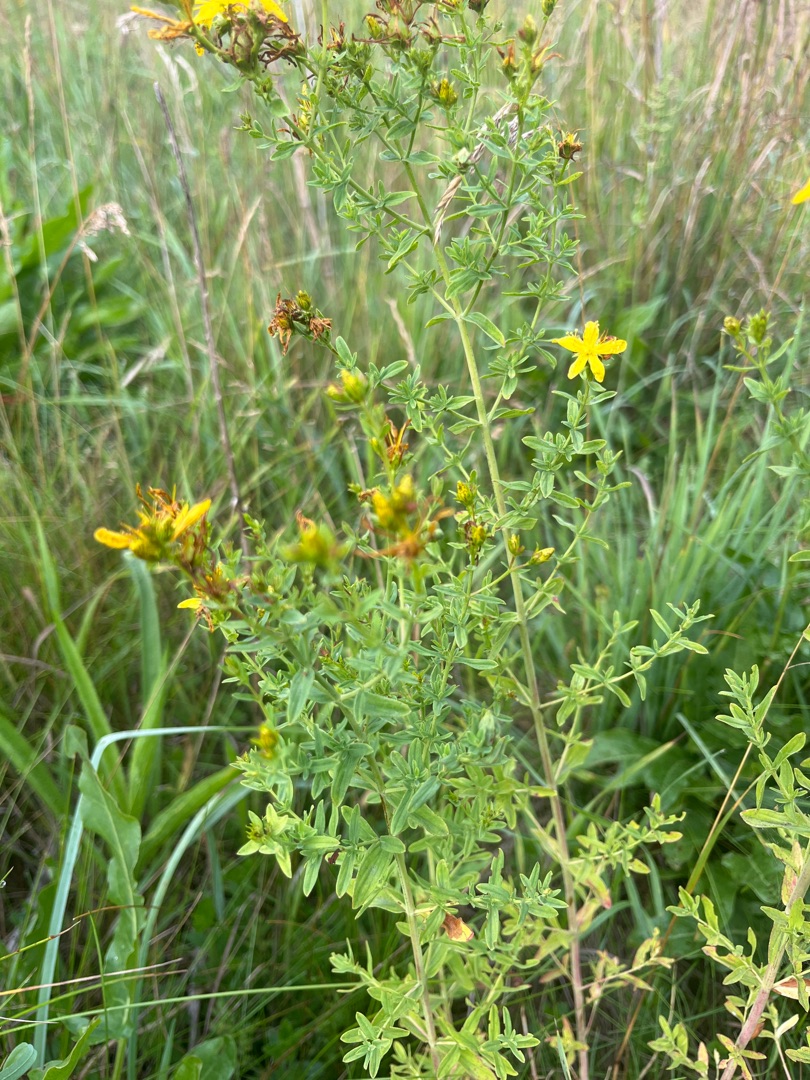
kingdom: Plantae
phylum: Tracheophyta
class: Magnoliopsida
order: Malpighiales
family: Hypericaceae
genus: Hypericum
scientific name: Hypericum perforatum
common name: Prikbladet perikon
